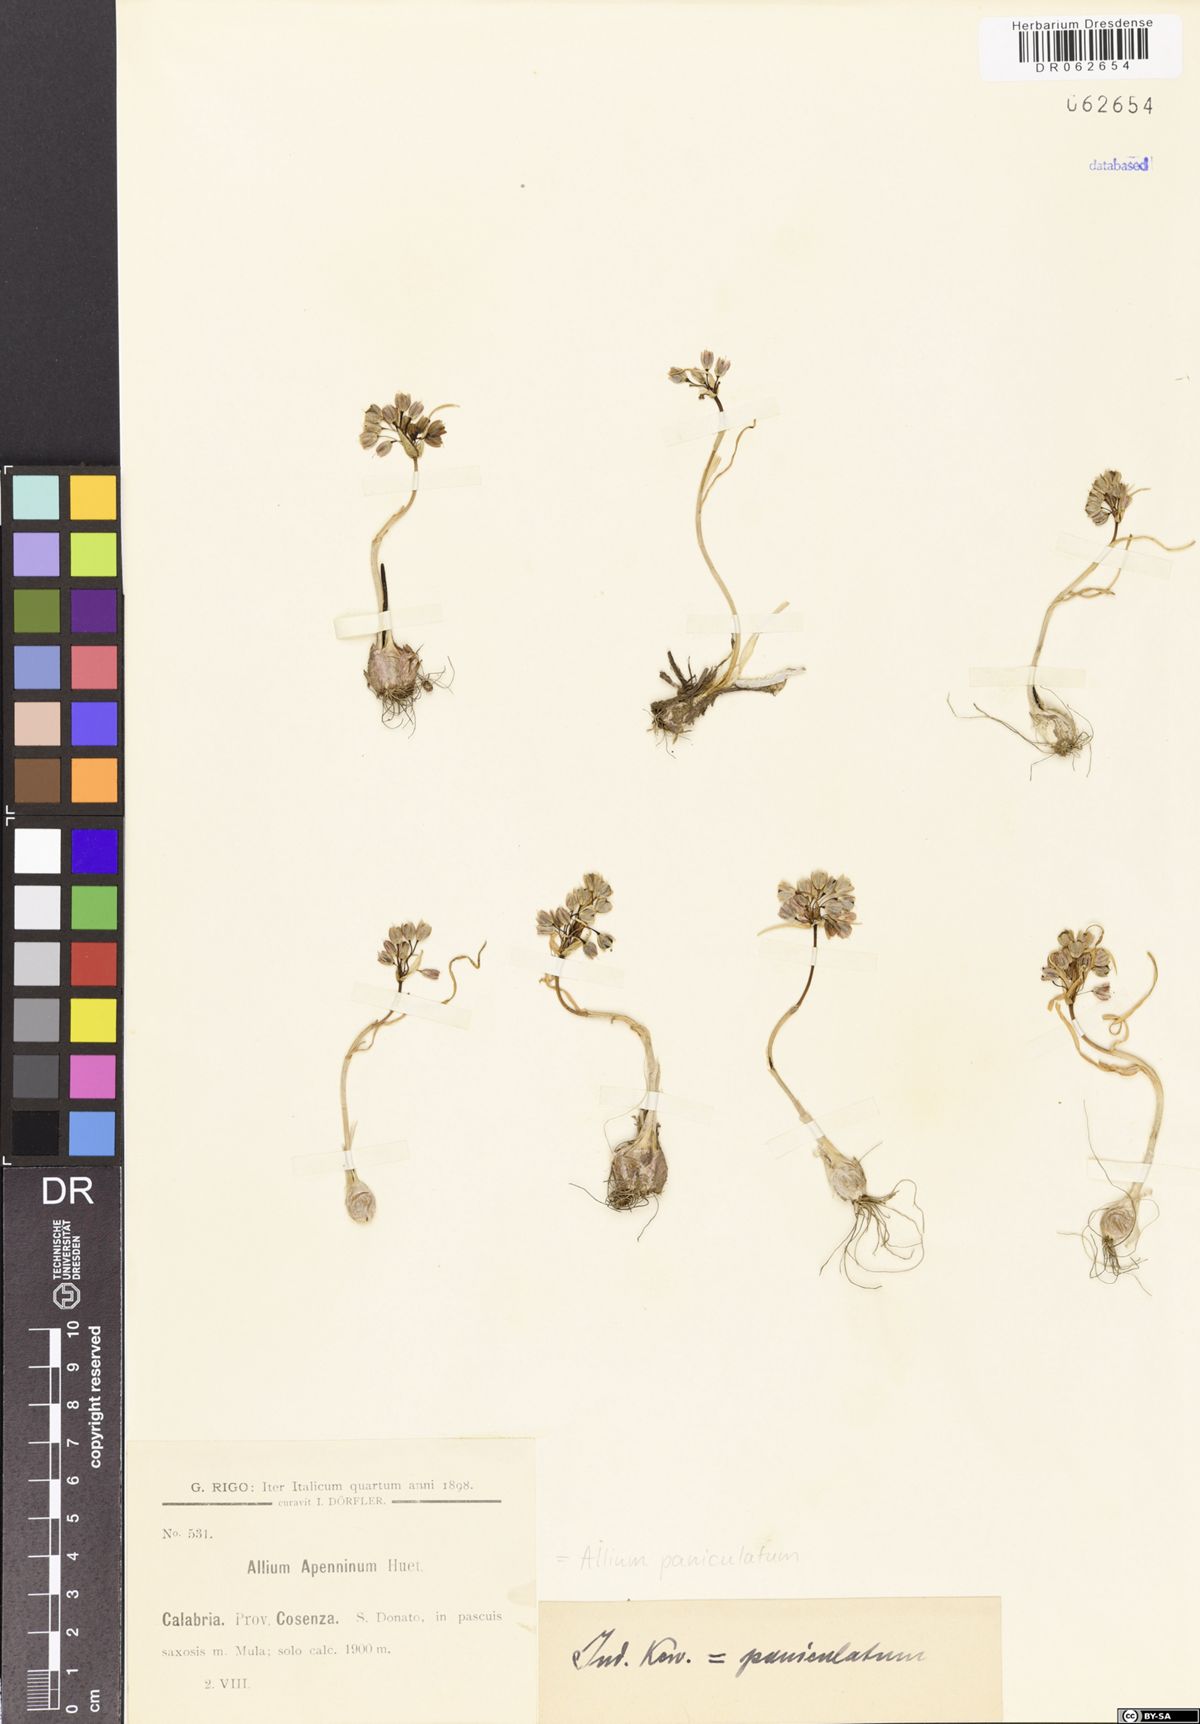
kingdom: Plantae
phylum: Tracheophyta
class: Liliopsida
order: Asparagales
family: Amaryllidaceae
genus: Allium
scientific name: Allium paniculatum
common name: Pale garlic
